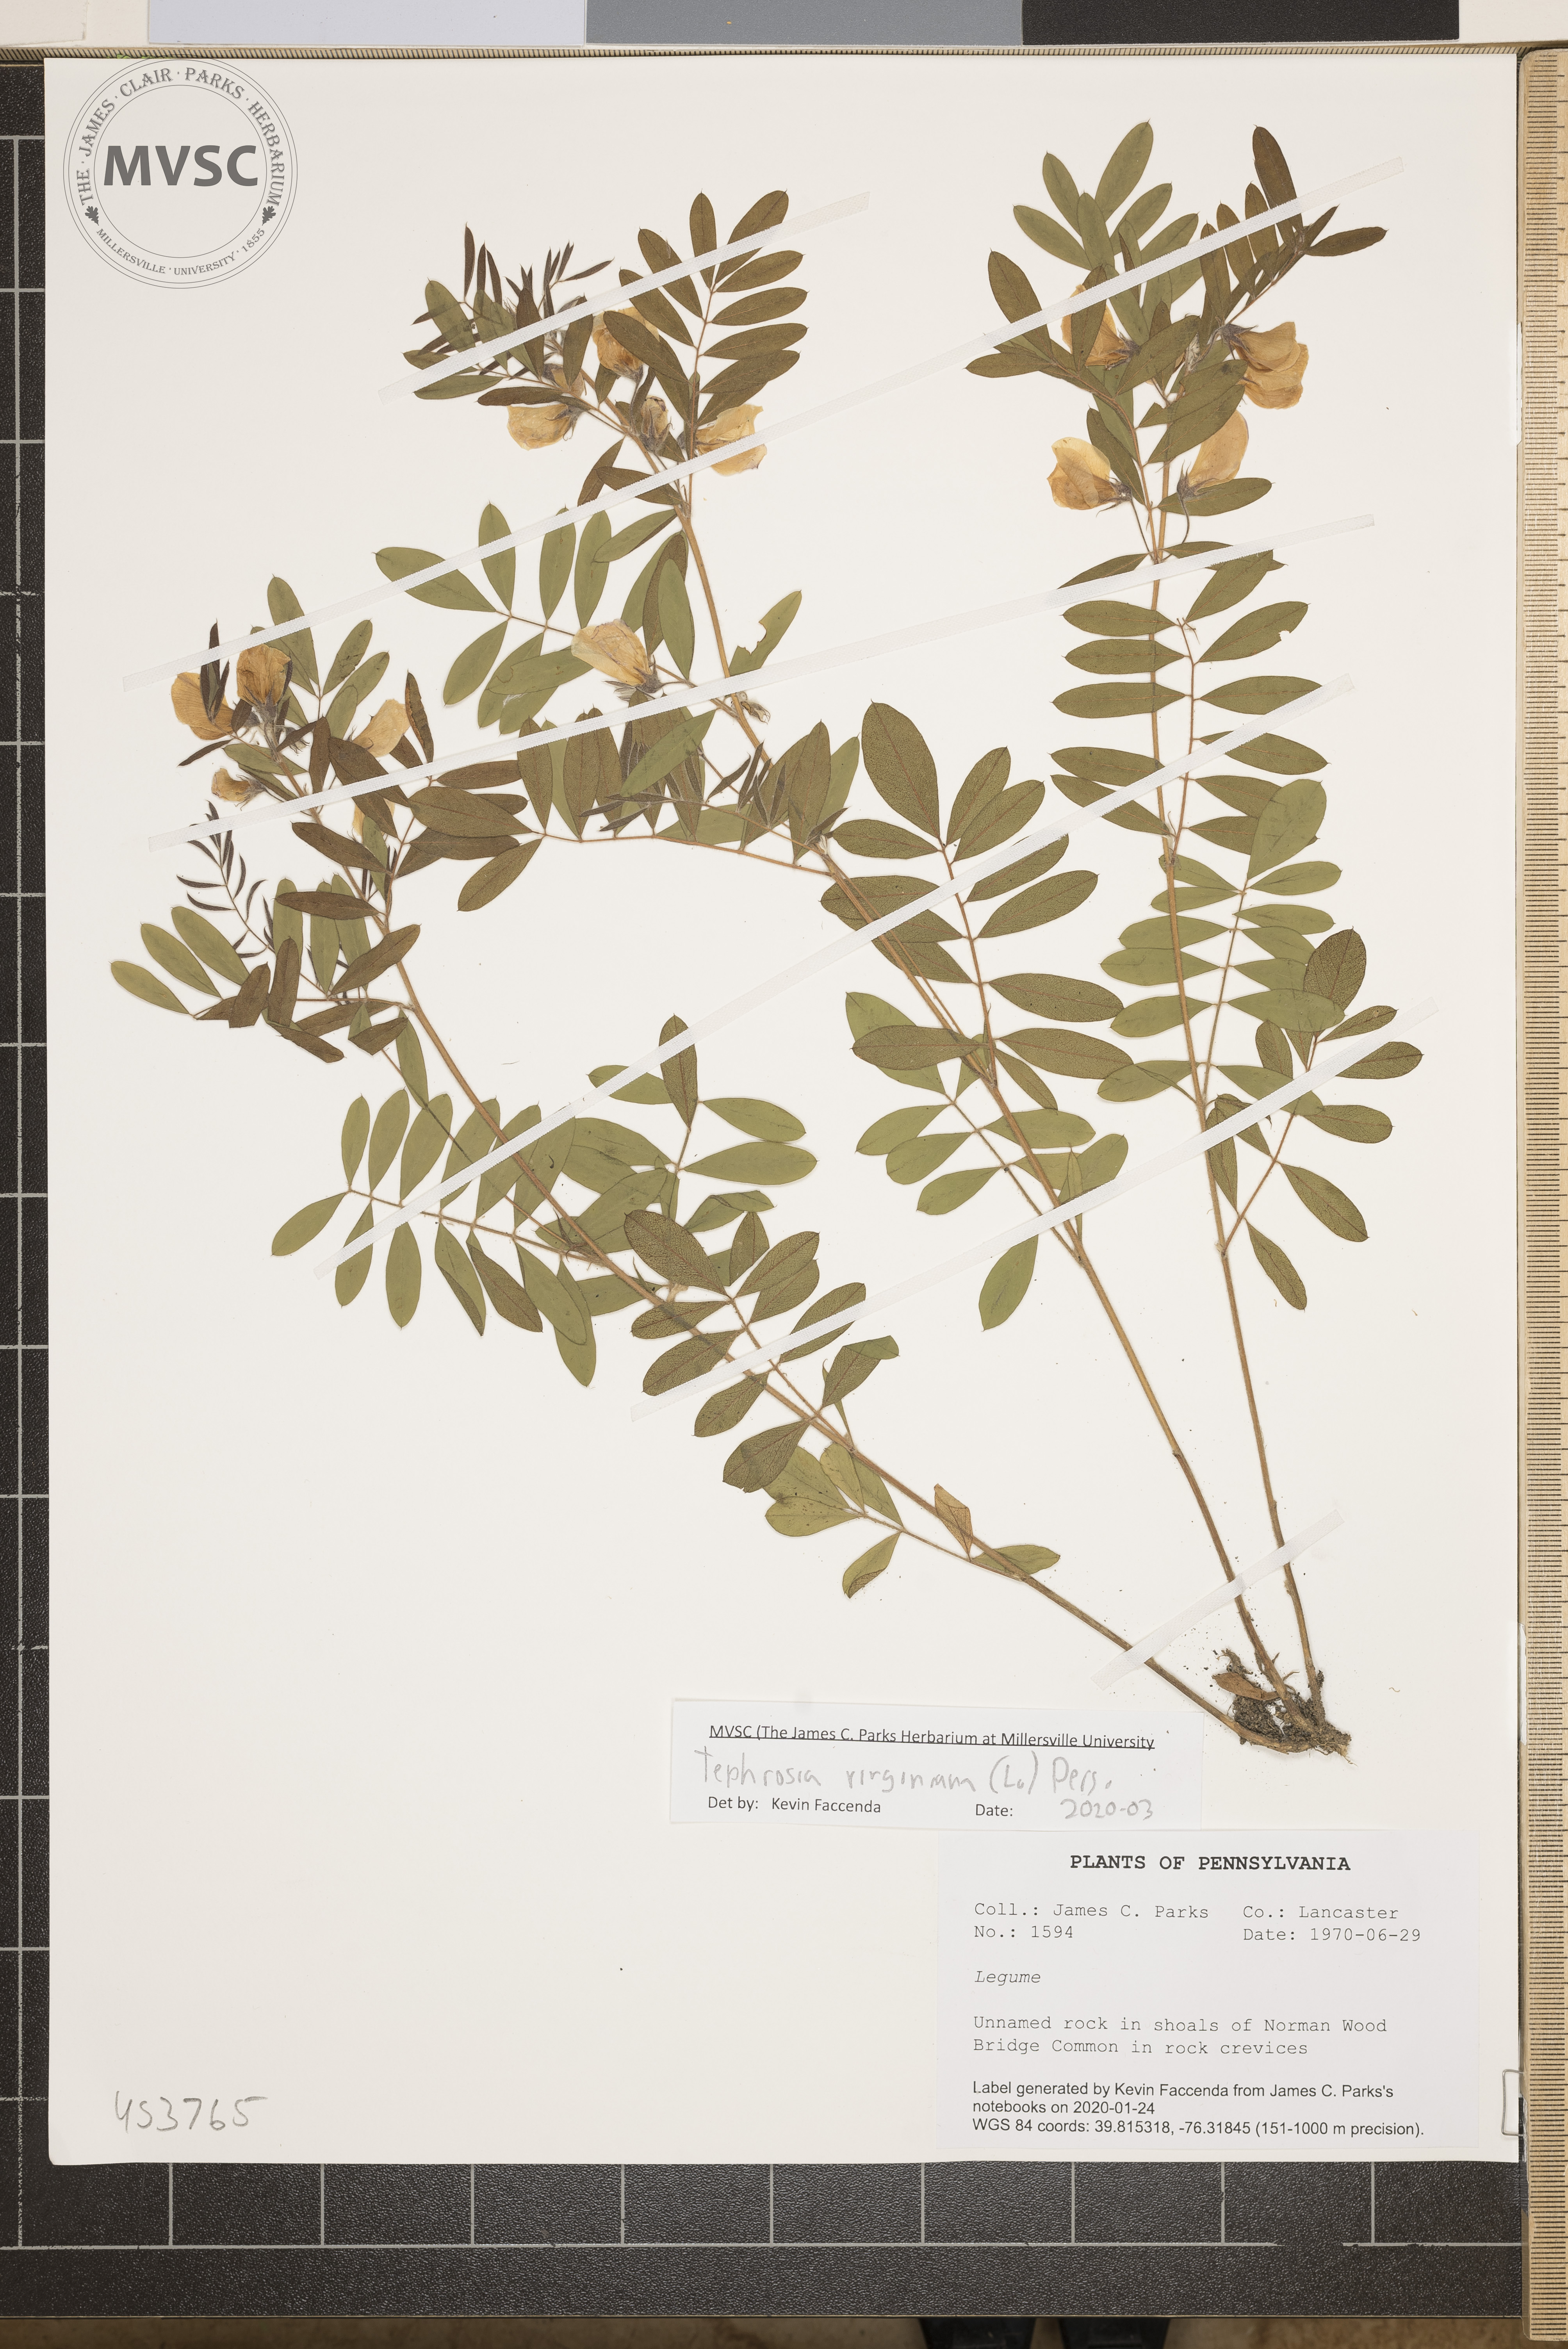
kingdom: Plantae
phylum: Tracheophyta
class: Magnoliopsida
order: Fabales
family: Fabaceae
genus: Tephrosia
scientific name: Tephrosia virginiana
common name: Rabbit-pea
